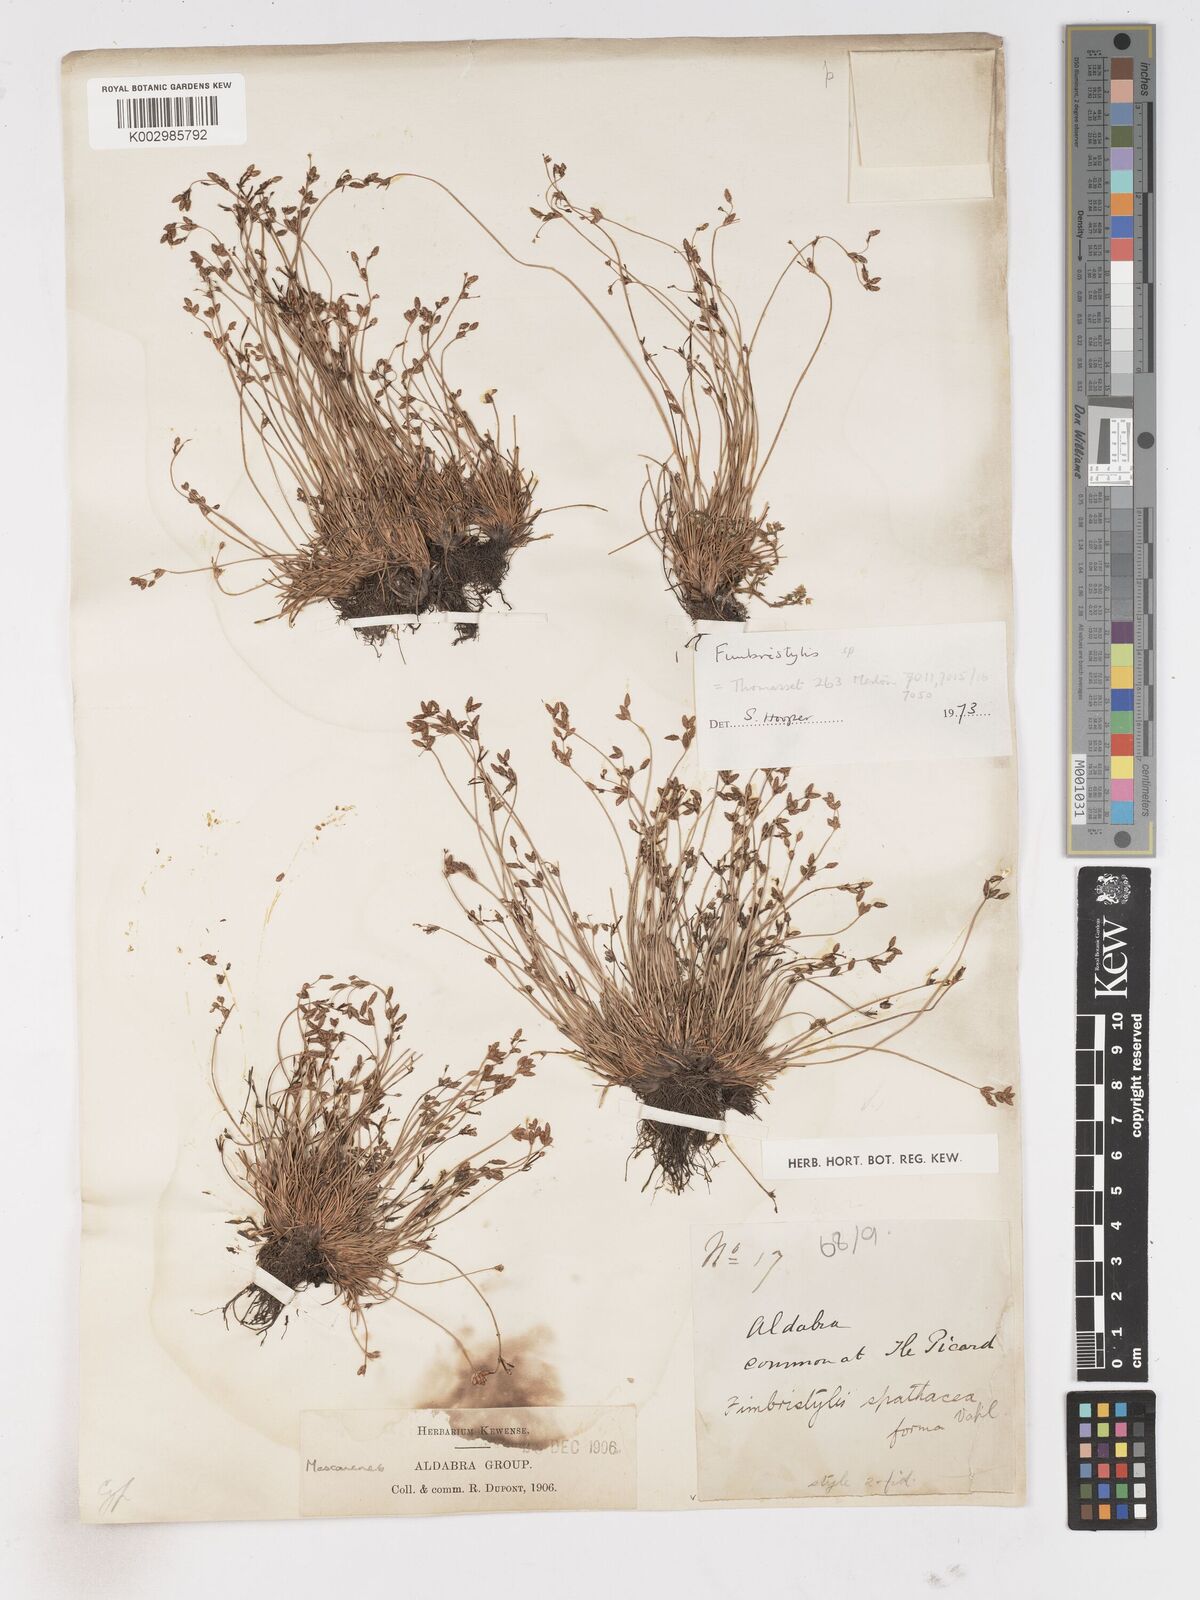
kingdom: Plantae
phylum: Tracheophyta
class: Liliopsida
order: Poales
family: Cyperaceae
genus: Fimbristylis
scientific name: Fimbristylis
